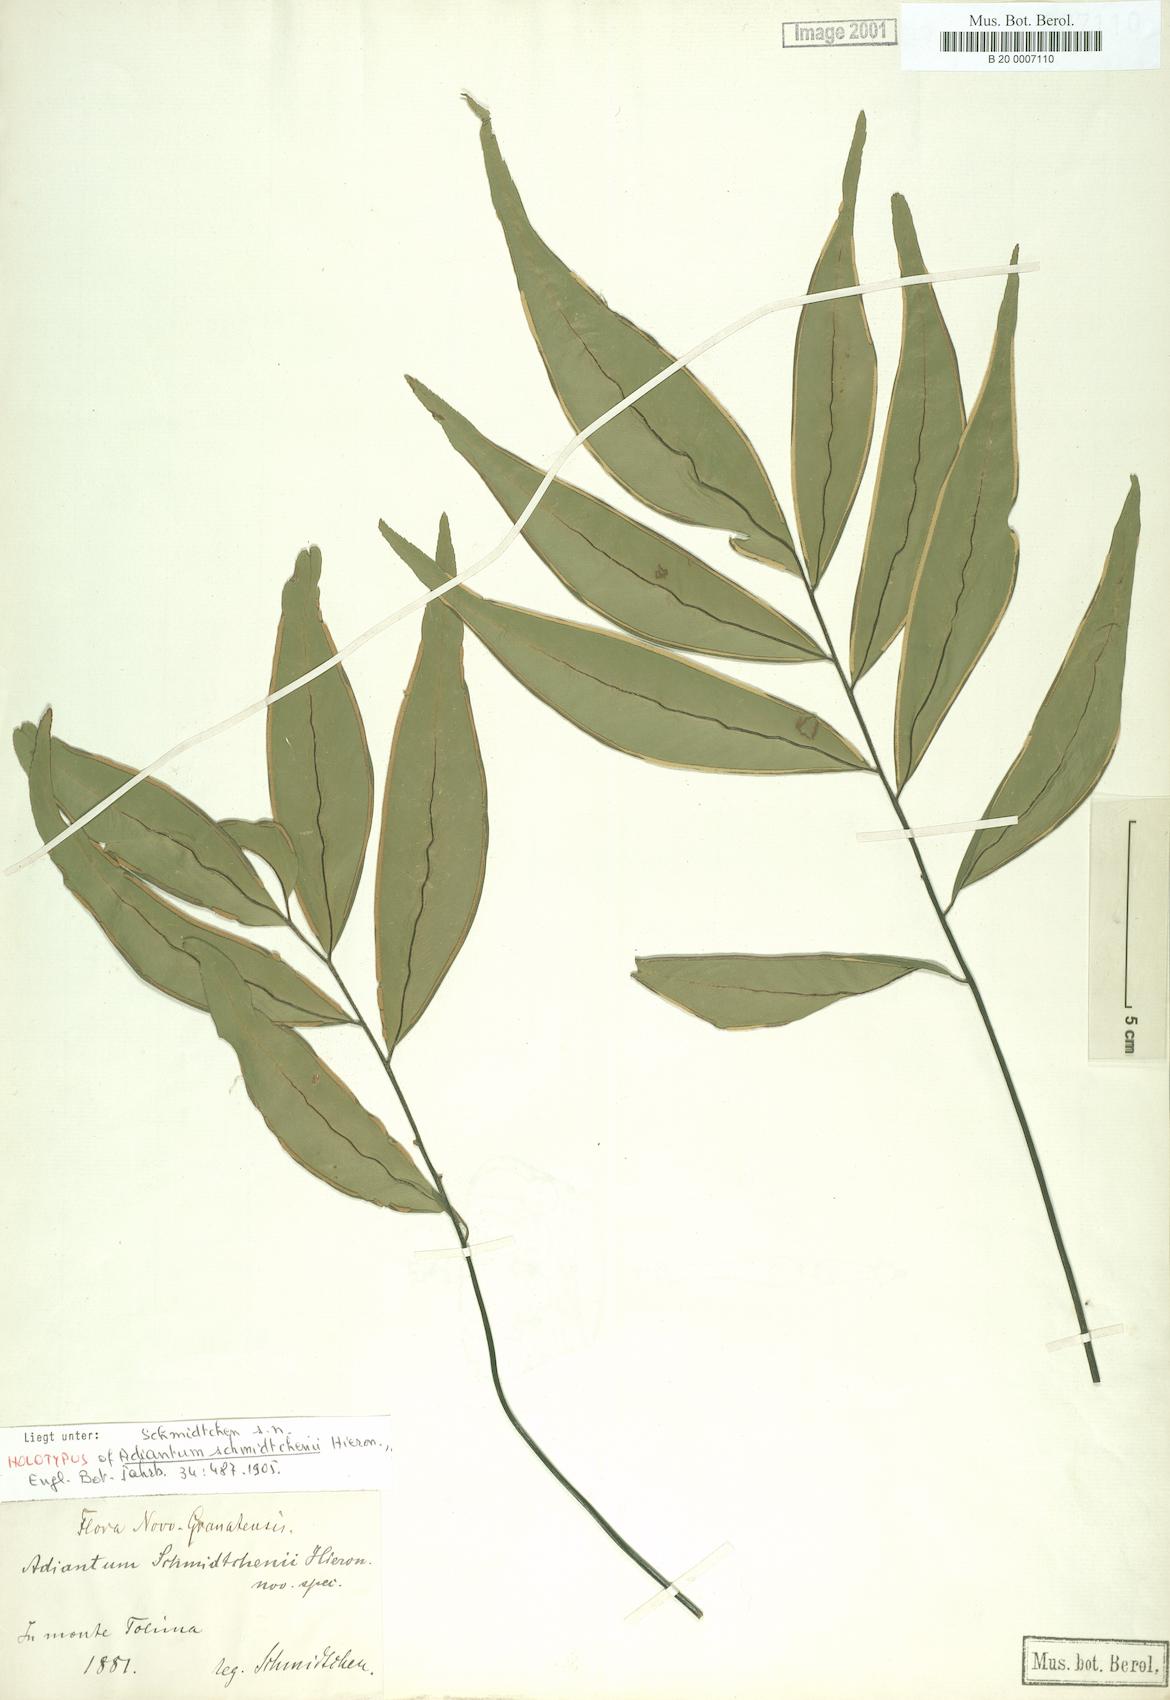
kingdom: Plantae
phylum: Tracheophyta
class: Polypodiopsida
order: Polypodiales
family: Pteridaceae
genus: Adiantum
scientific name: Adiantum schmidtchenii
